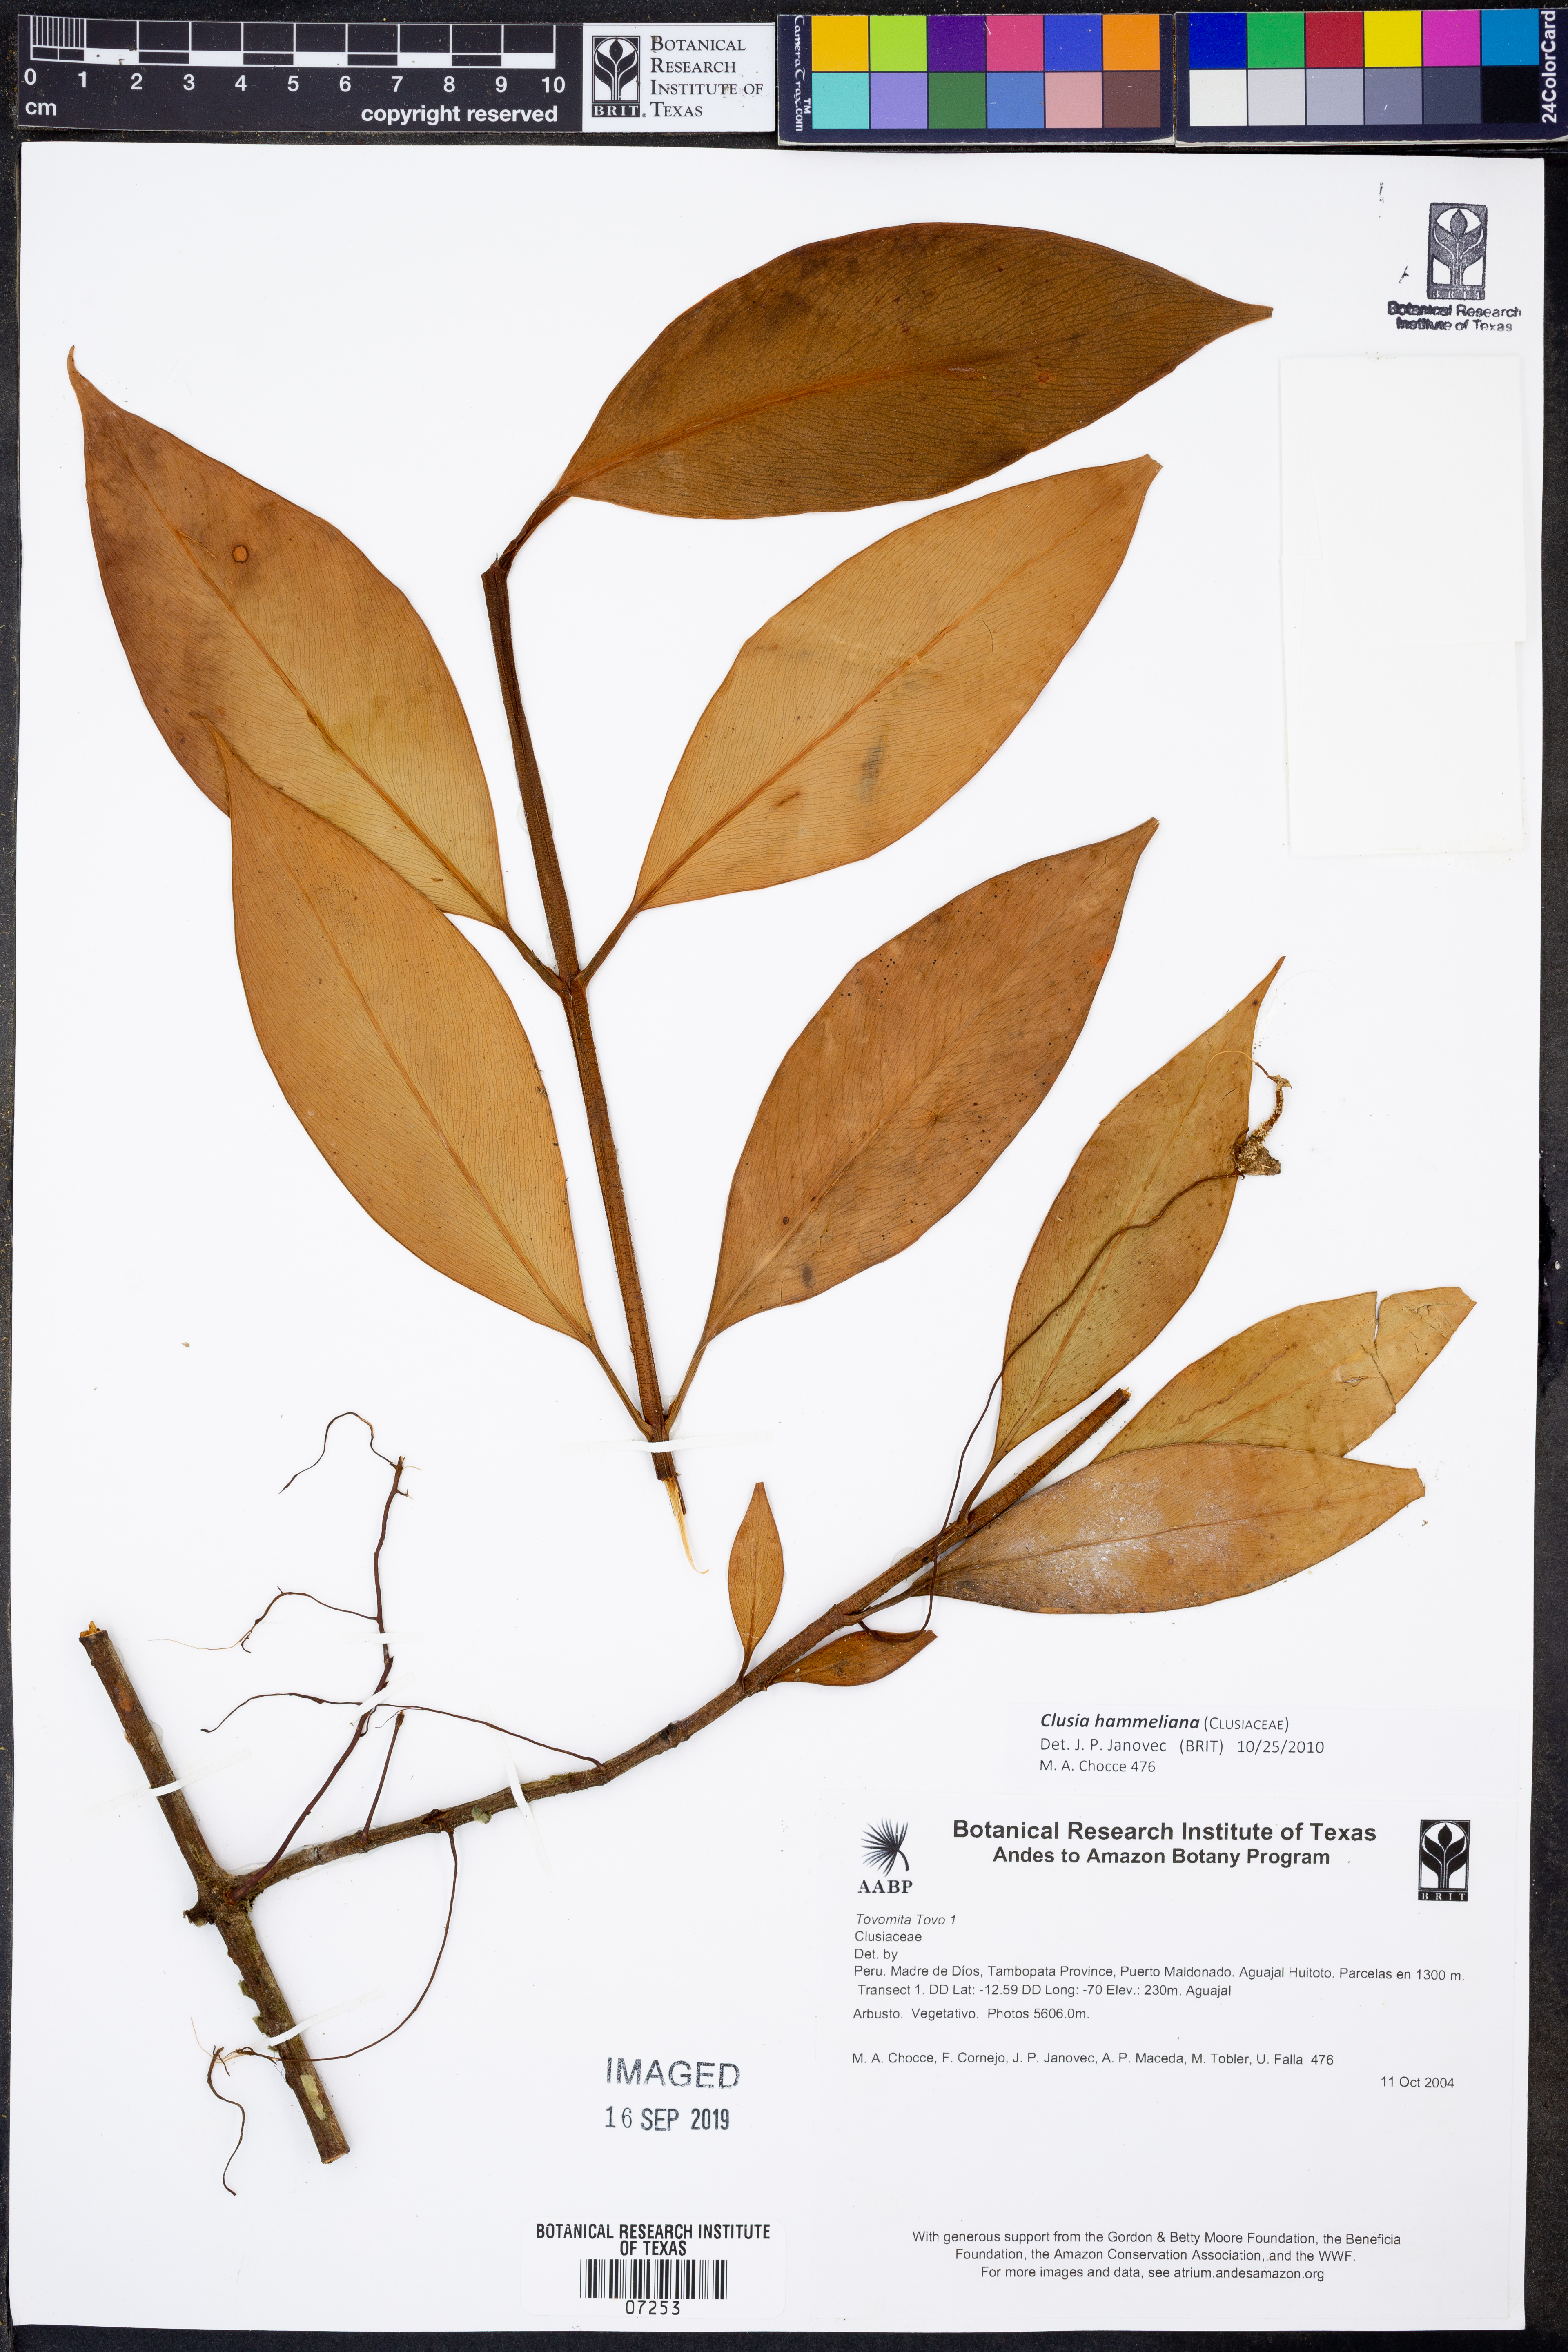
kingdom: Plantae
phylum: Tracheophyta
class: Magnoliopsida
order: Malpighiales
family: Clusiaceae
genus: Clusia
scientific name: Clusia hammeliana
